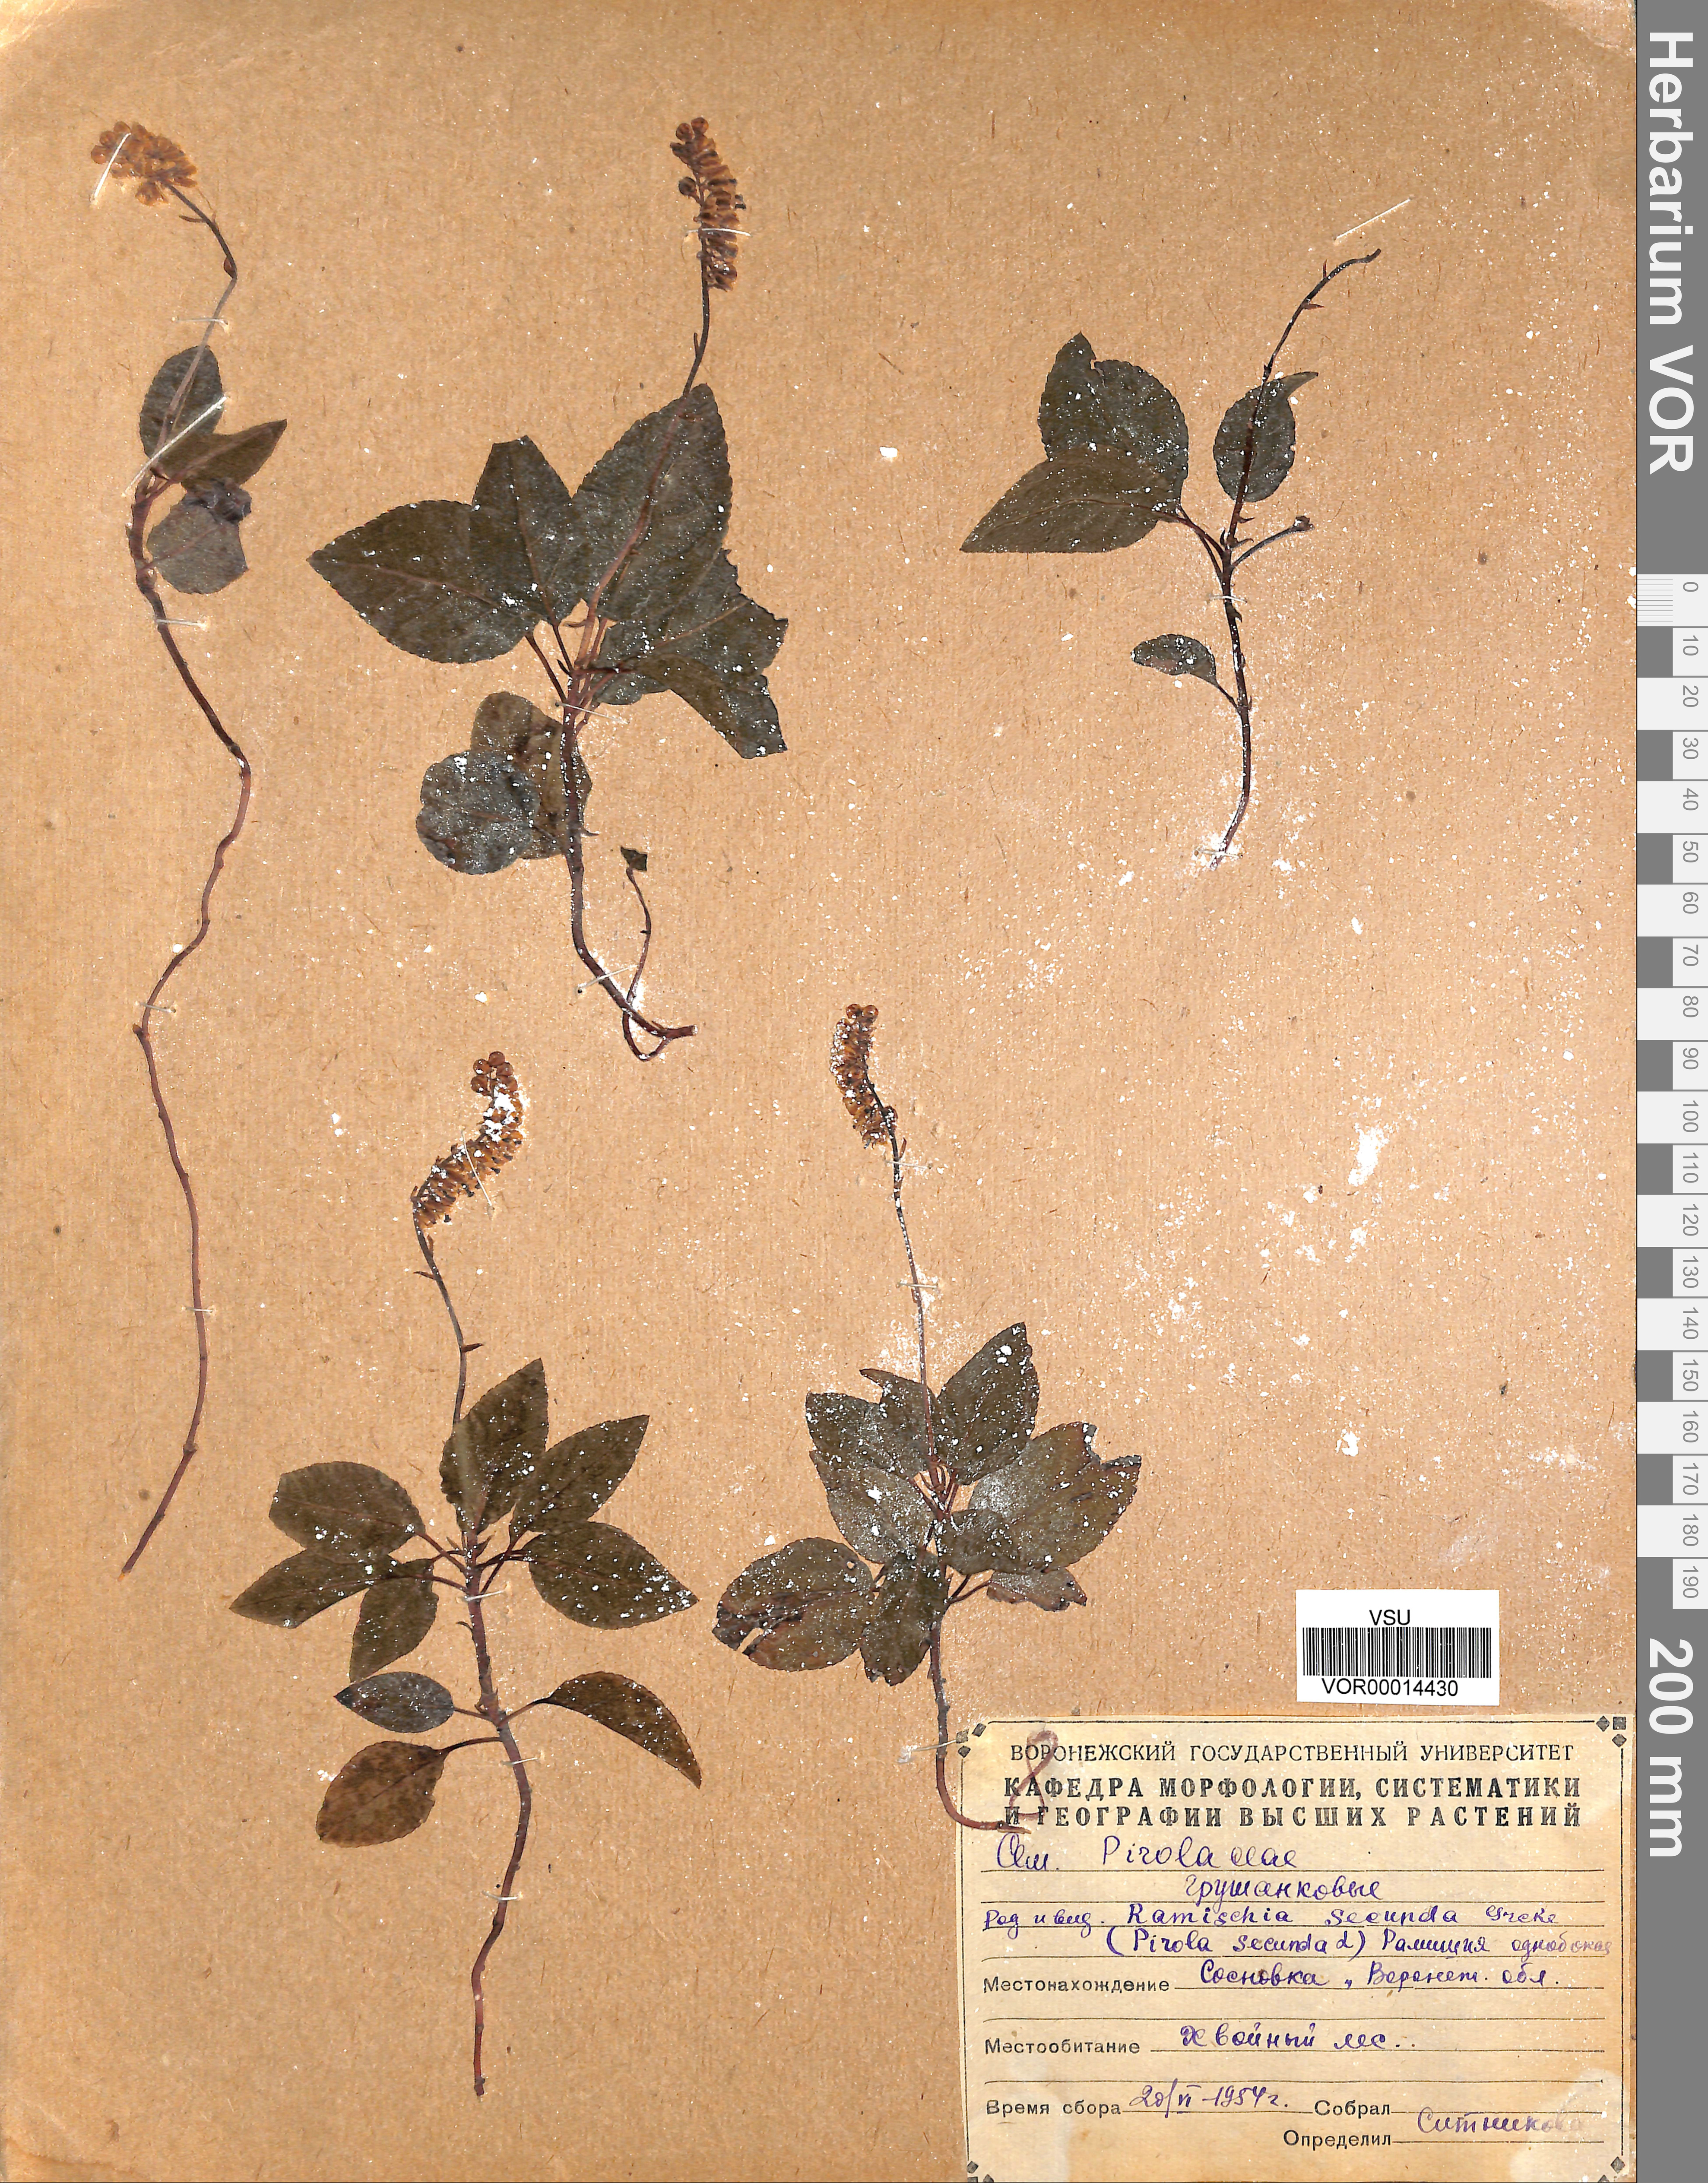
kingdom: Plantae
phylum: Tracheophyta
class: Magnoliopsida
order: Ericales
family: Ericaceae
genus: Orthilia
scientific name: Orthilia secunda
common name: One-sided orthilia
